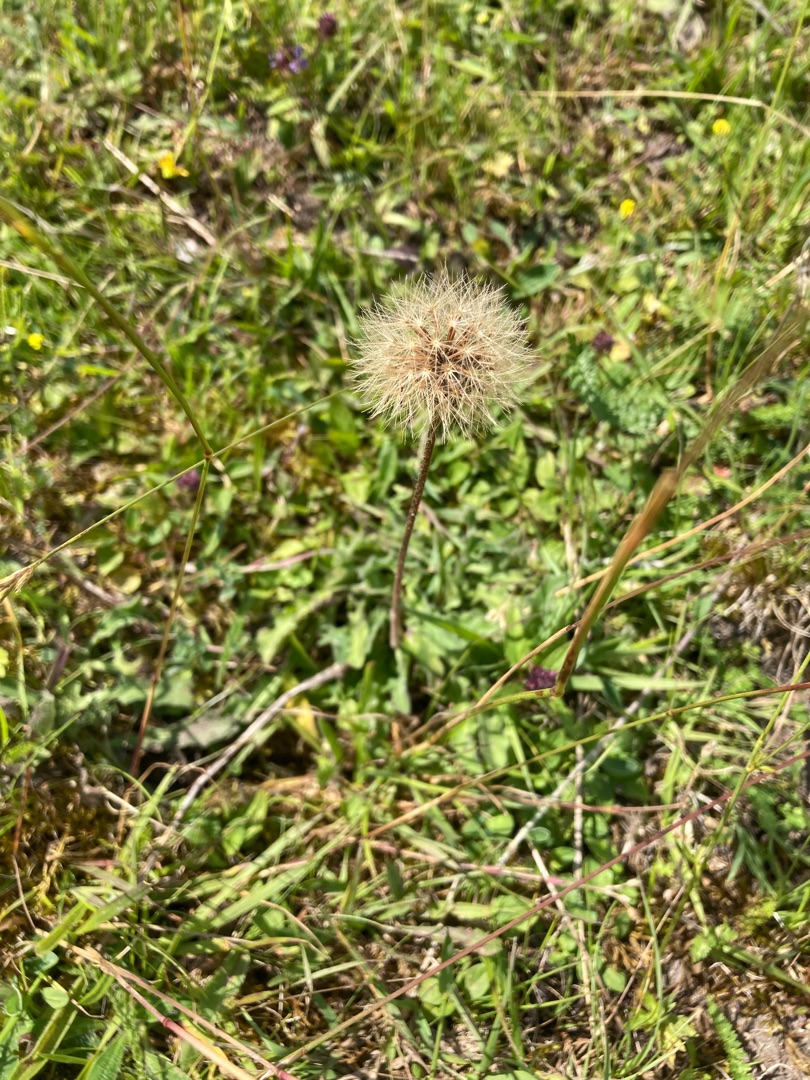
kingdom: Plantae
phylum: Tracheophyta
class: Magnoliopsida
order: Asterales
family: Asteraceae
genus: Leontodon
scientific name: Leontodon hispidus
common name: Stivhåret borst
